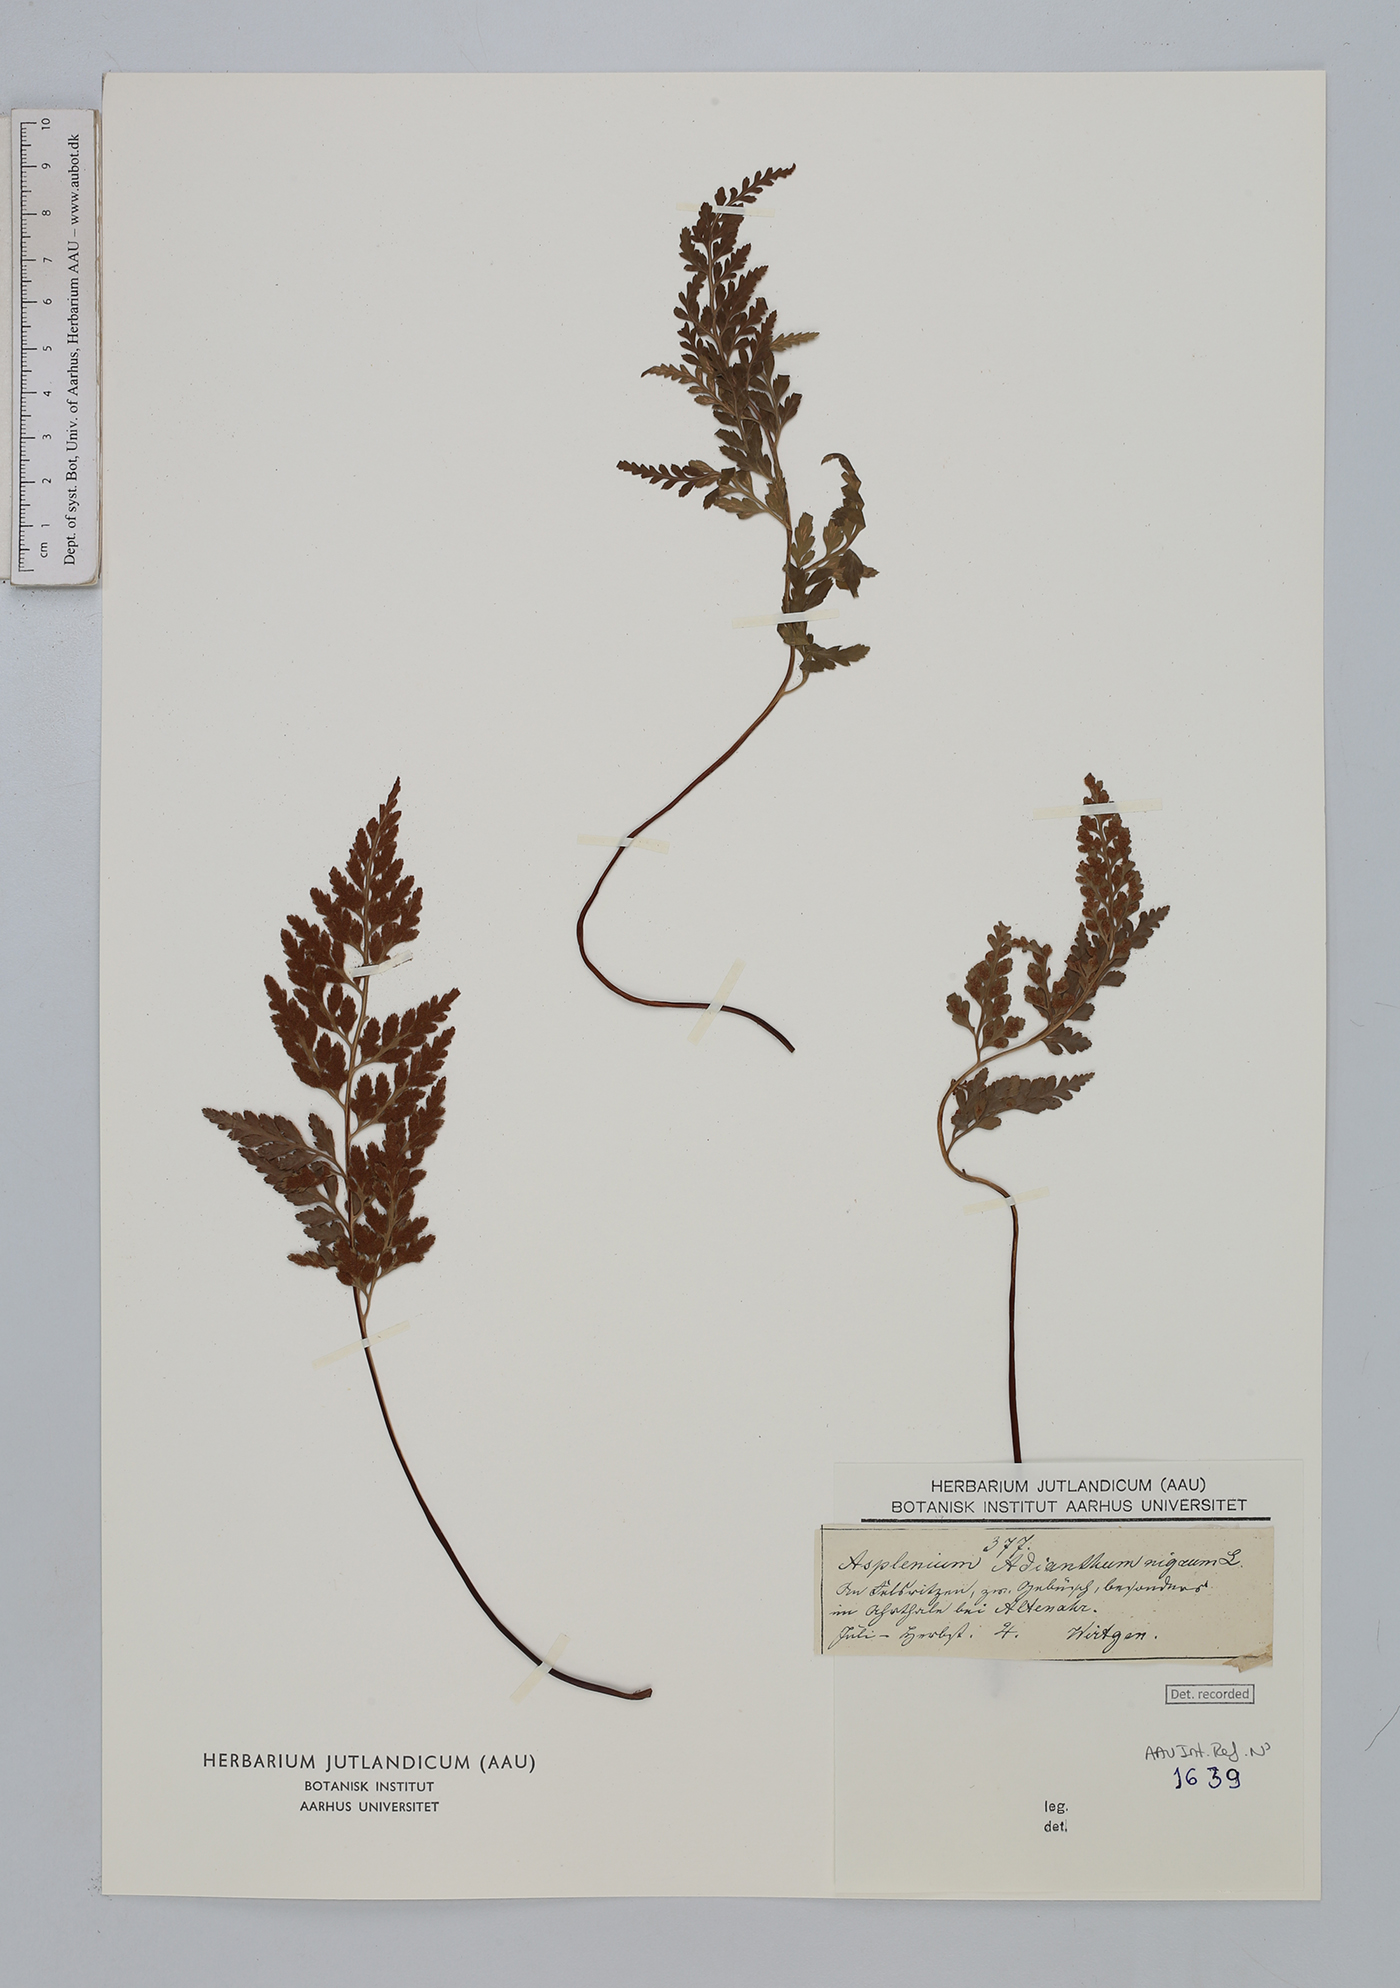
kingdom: Plantae
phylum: Tracheophyta
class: Polypodiopsida
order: Polypodiales
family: Aspleniaceae
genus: Asplenium
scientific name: Asplenium adiantum-nigrum
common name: Black spleenwort
